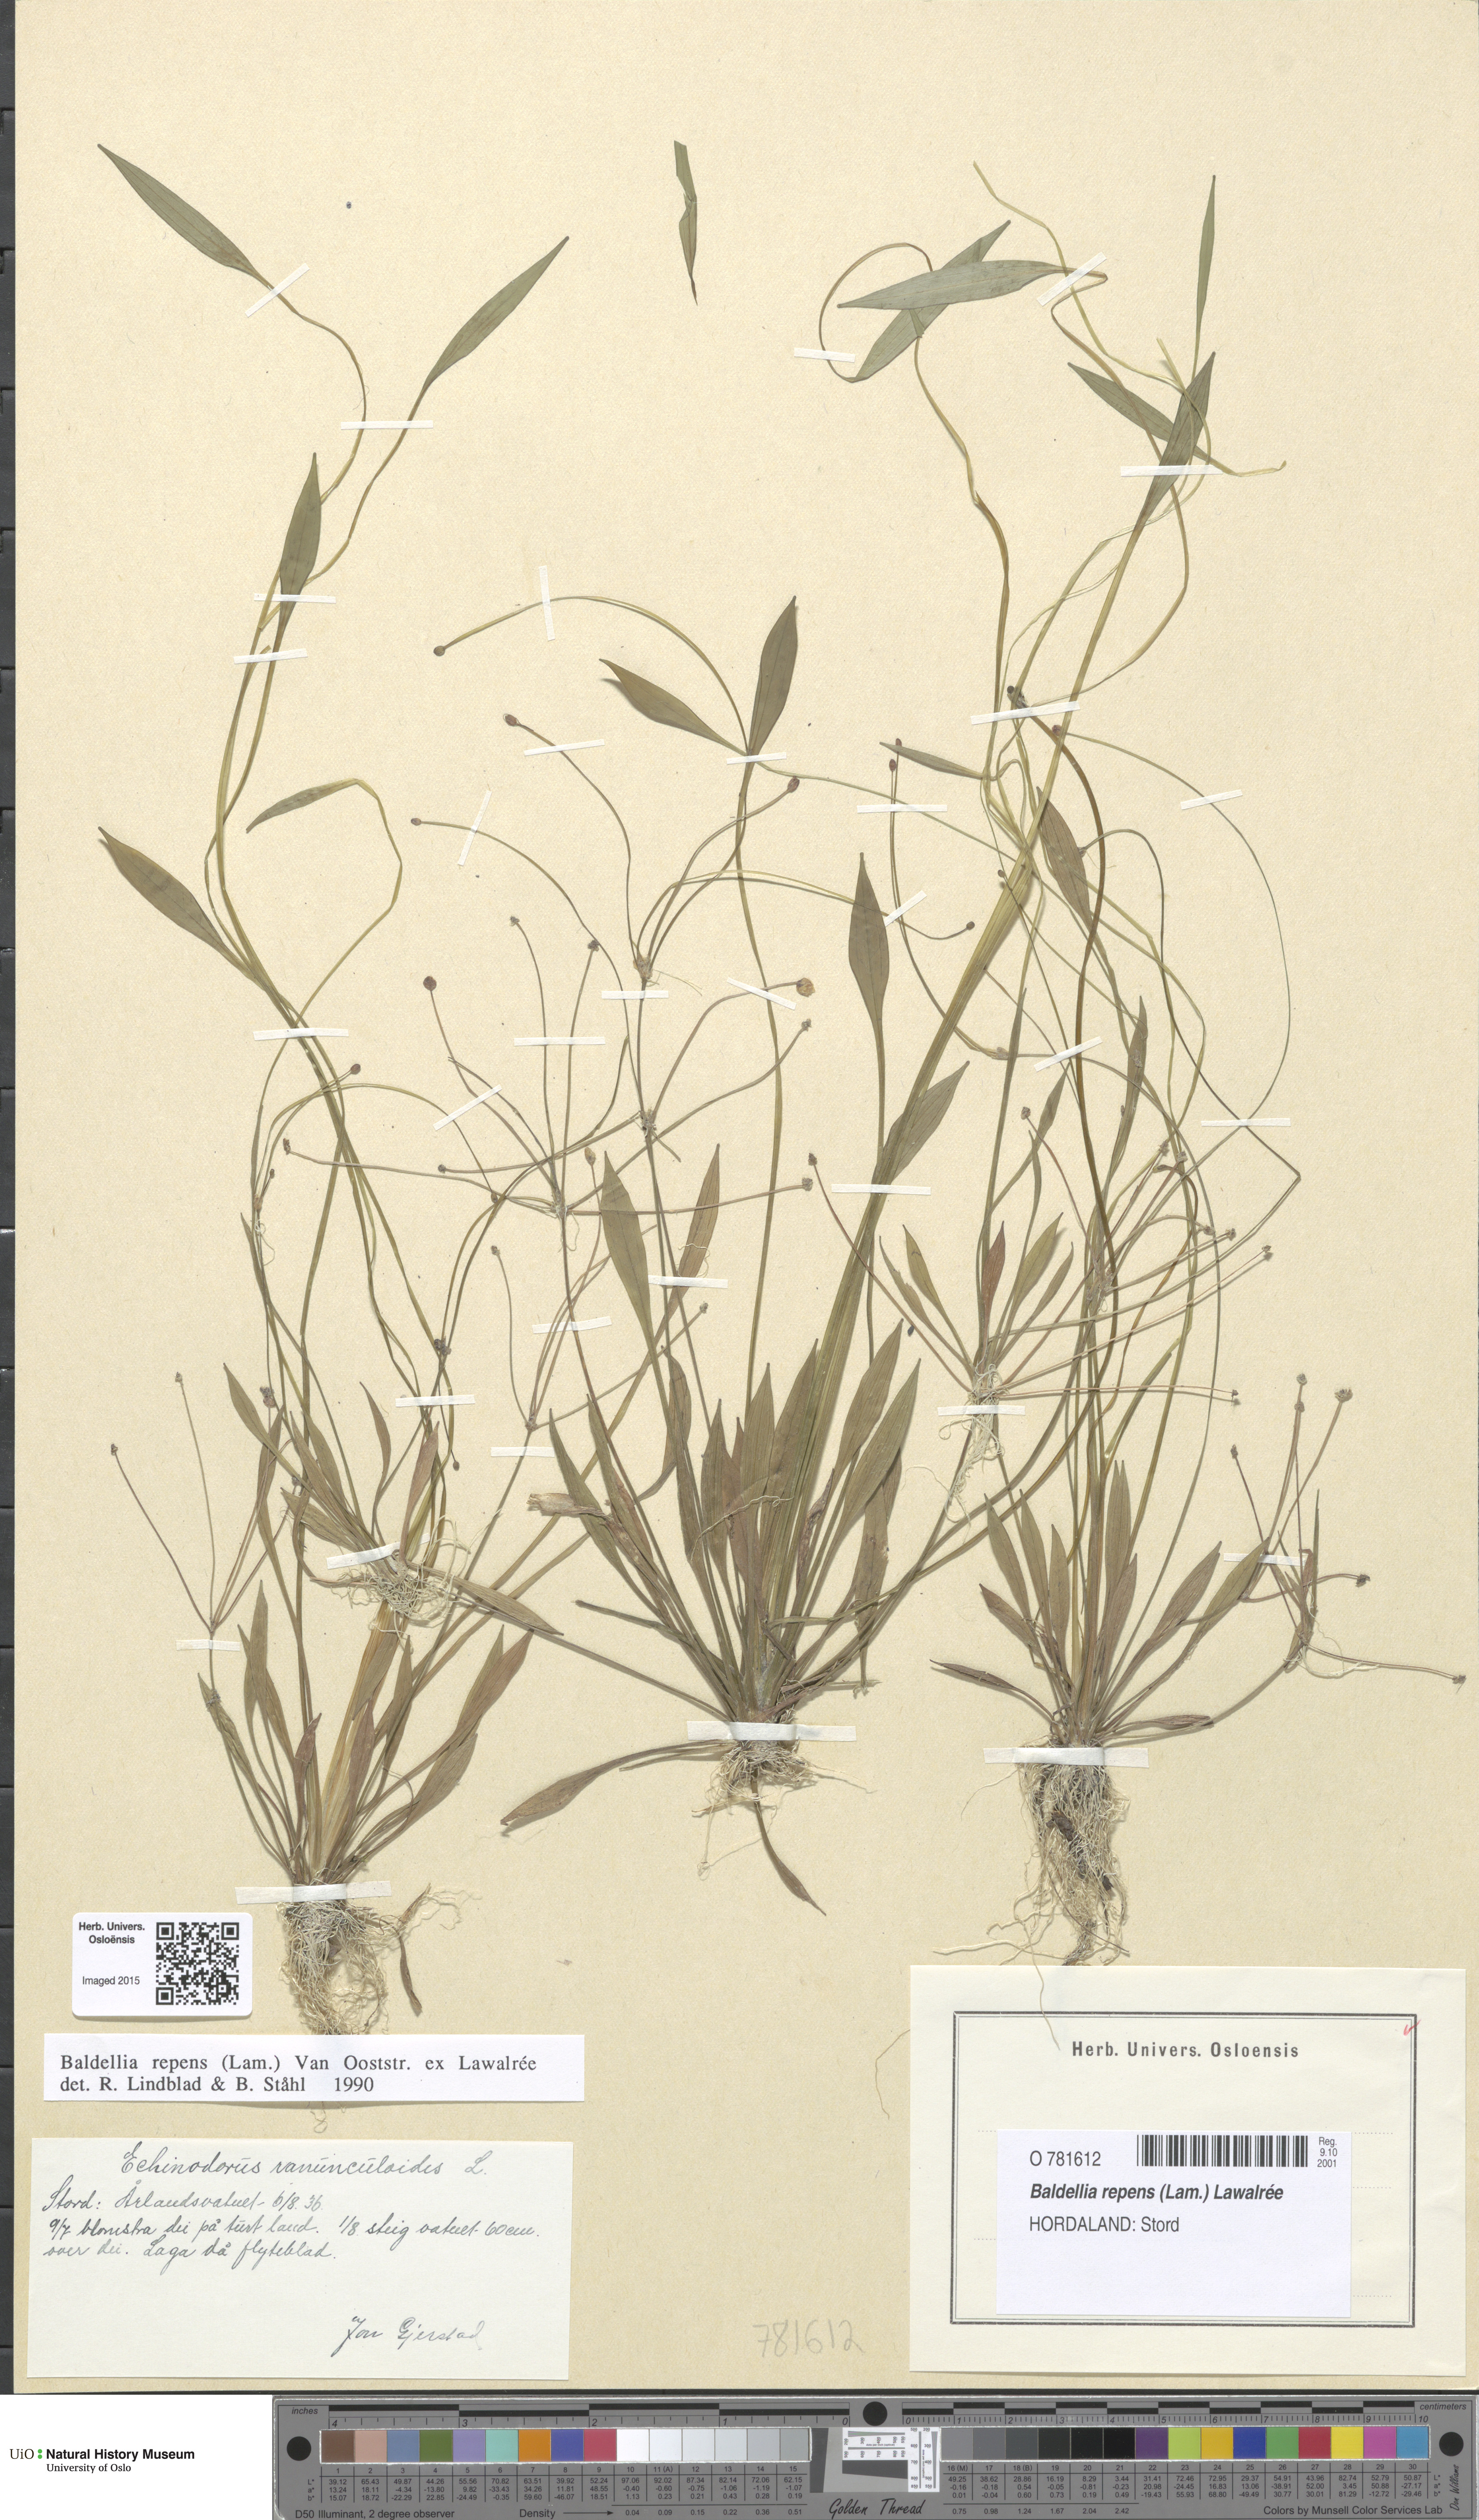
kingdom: Plantae
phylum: Tracheophyta
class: Liliopsida
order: Alismatales
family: Alismataceae
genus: Baldellia
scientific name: Baldellia repens
